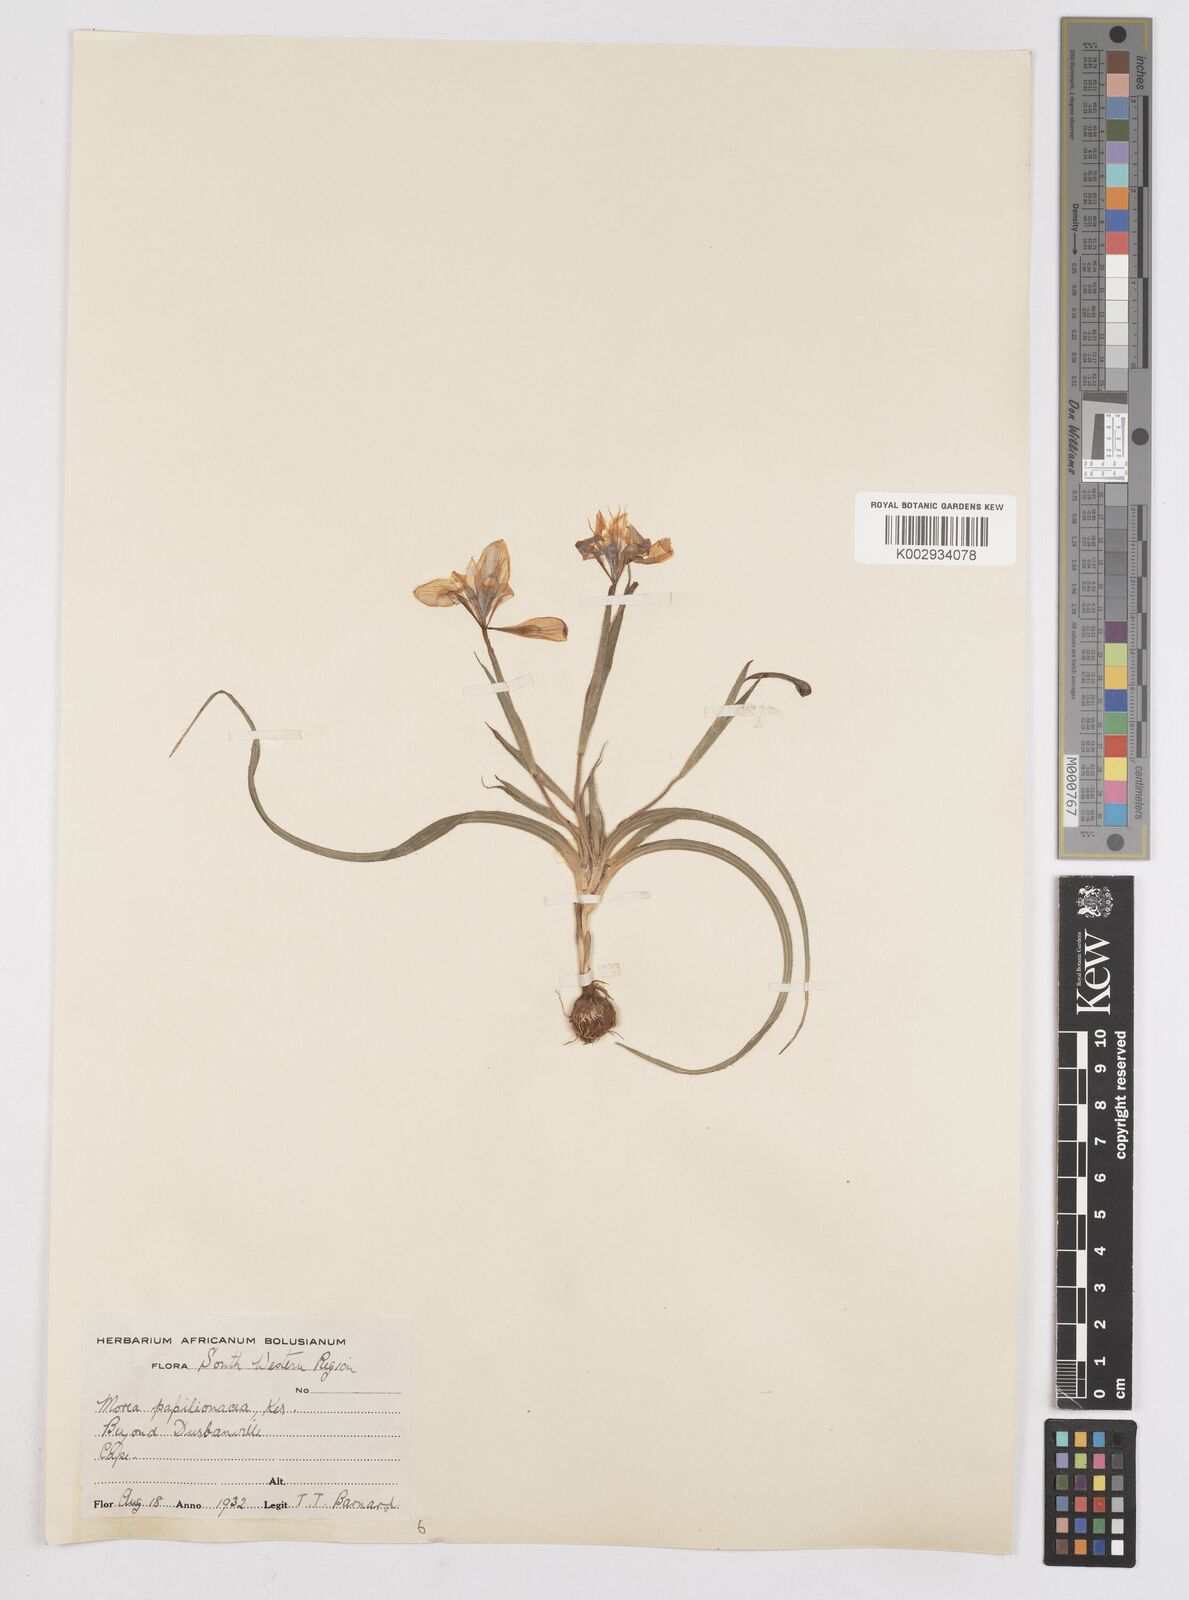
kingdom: Plantae
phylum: Tracheophyta
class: Liliopsida
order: Asparagales
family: Iridaceae
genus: Moraea
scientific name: Moraea papilionacea
